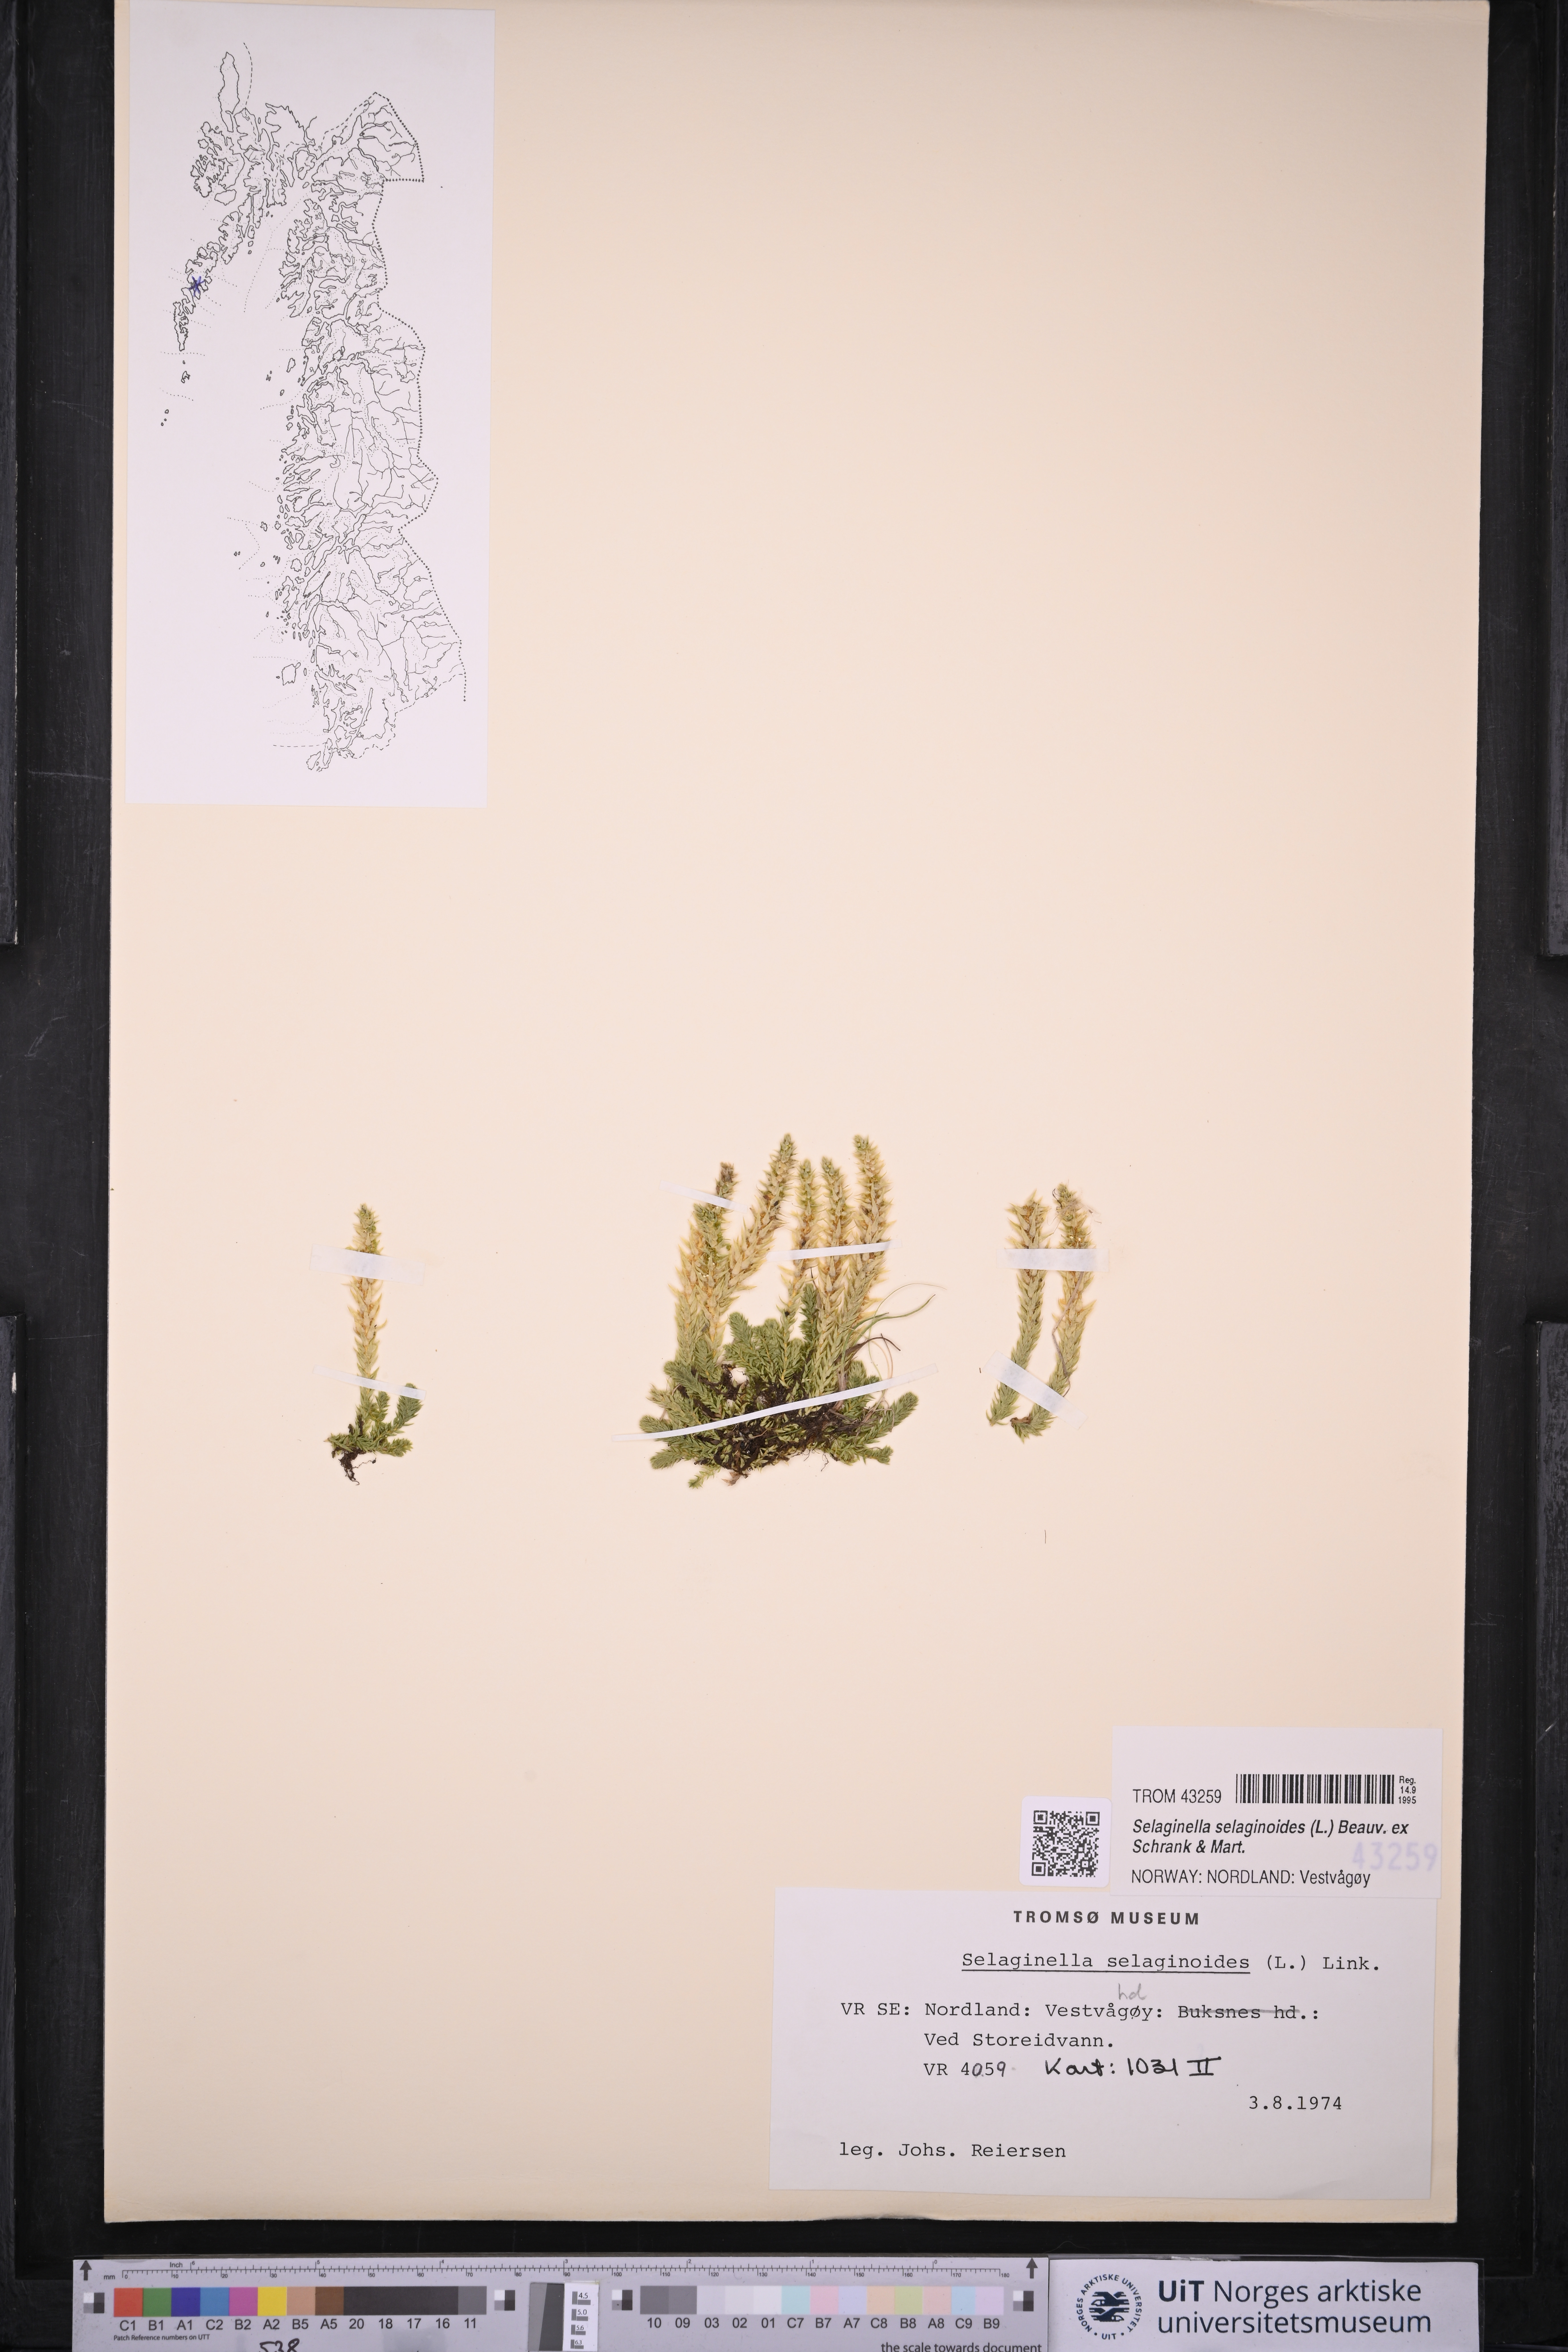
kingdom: Plantae
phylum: Tracheophyta
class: Lycopodiopsida
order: Selaginellales
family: Selaginellaceae
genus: Selaginella
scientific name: Selaginella selaginoides
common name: Prickly mountain-moss
